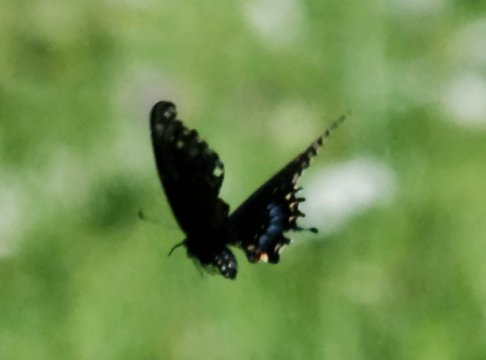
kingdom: Animalia
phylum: Arthropoda
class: Insecta
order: Lepidoptera
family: Papilionidae
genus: Papilio
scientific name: Papilio polyxenes
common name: Black Swallowtail
